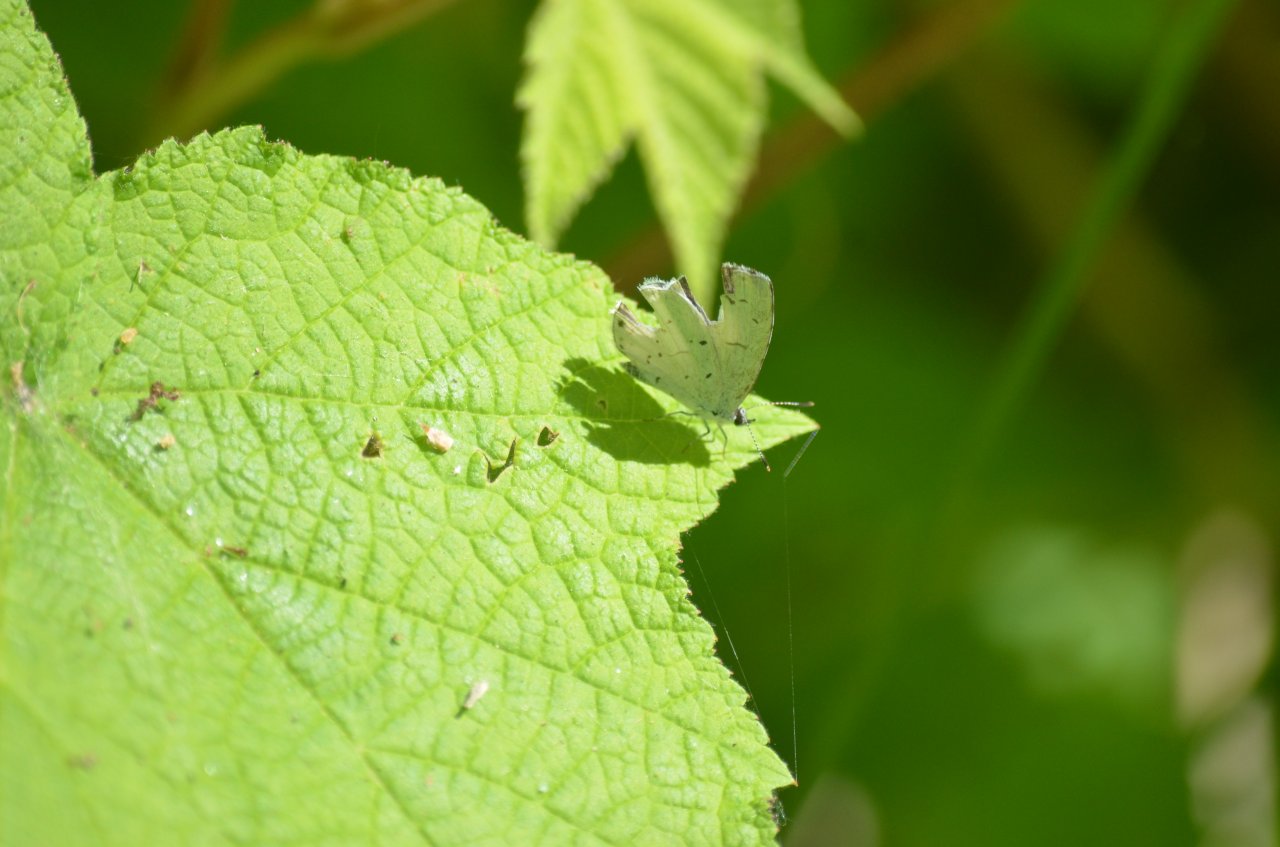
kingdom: Animalia
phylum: Arthropoda
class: Insecta
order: Lepidoptera
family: Lycaenidae
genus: Celastrina
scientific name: Celastrina lucia
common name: Northern Spring Azure
